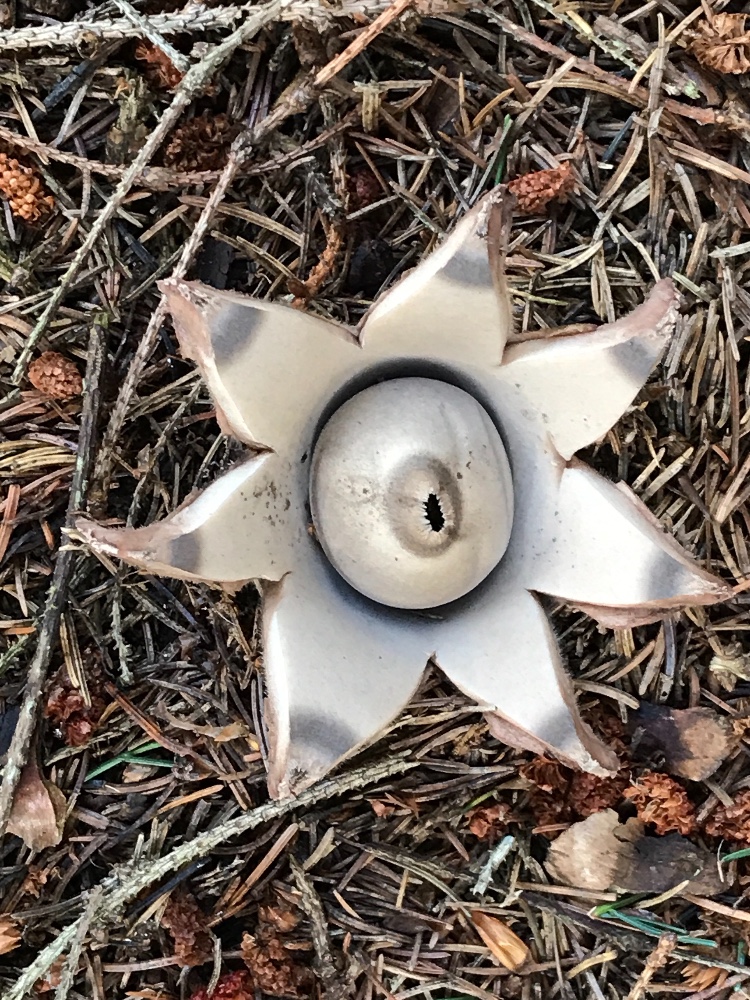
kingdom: Fungi
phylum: Basidiomycota
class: Agaricomycetes
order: Geastrales
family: Geastraceae
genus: Geastrum
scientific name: Geastrum michelianum
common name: kødet stjernebold
